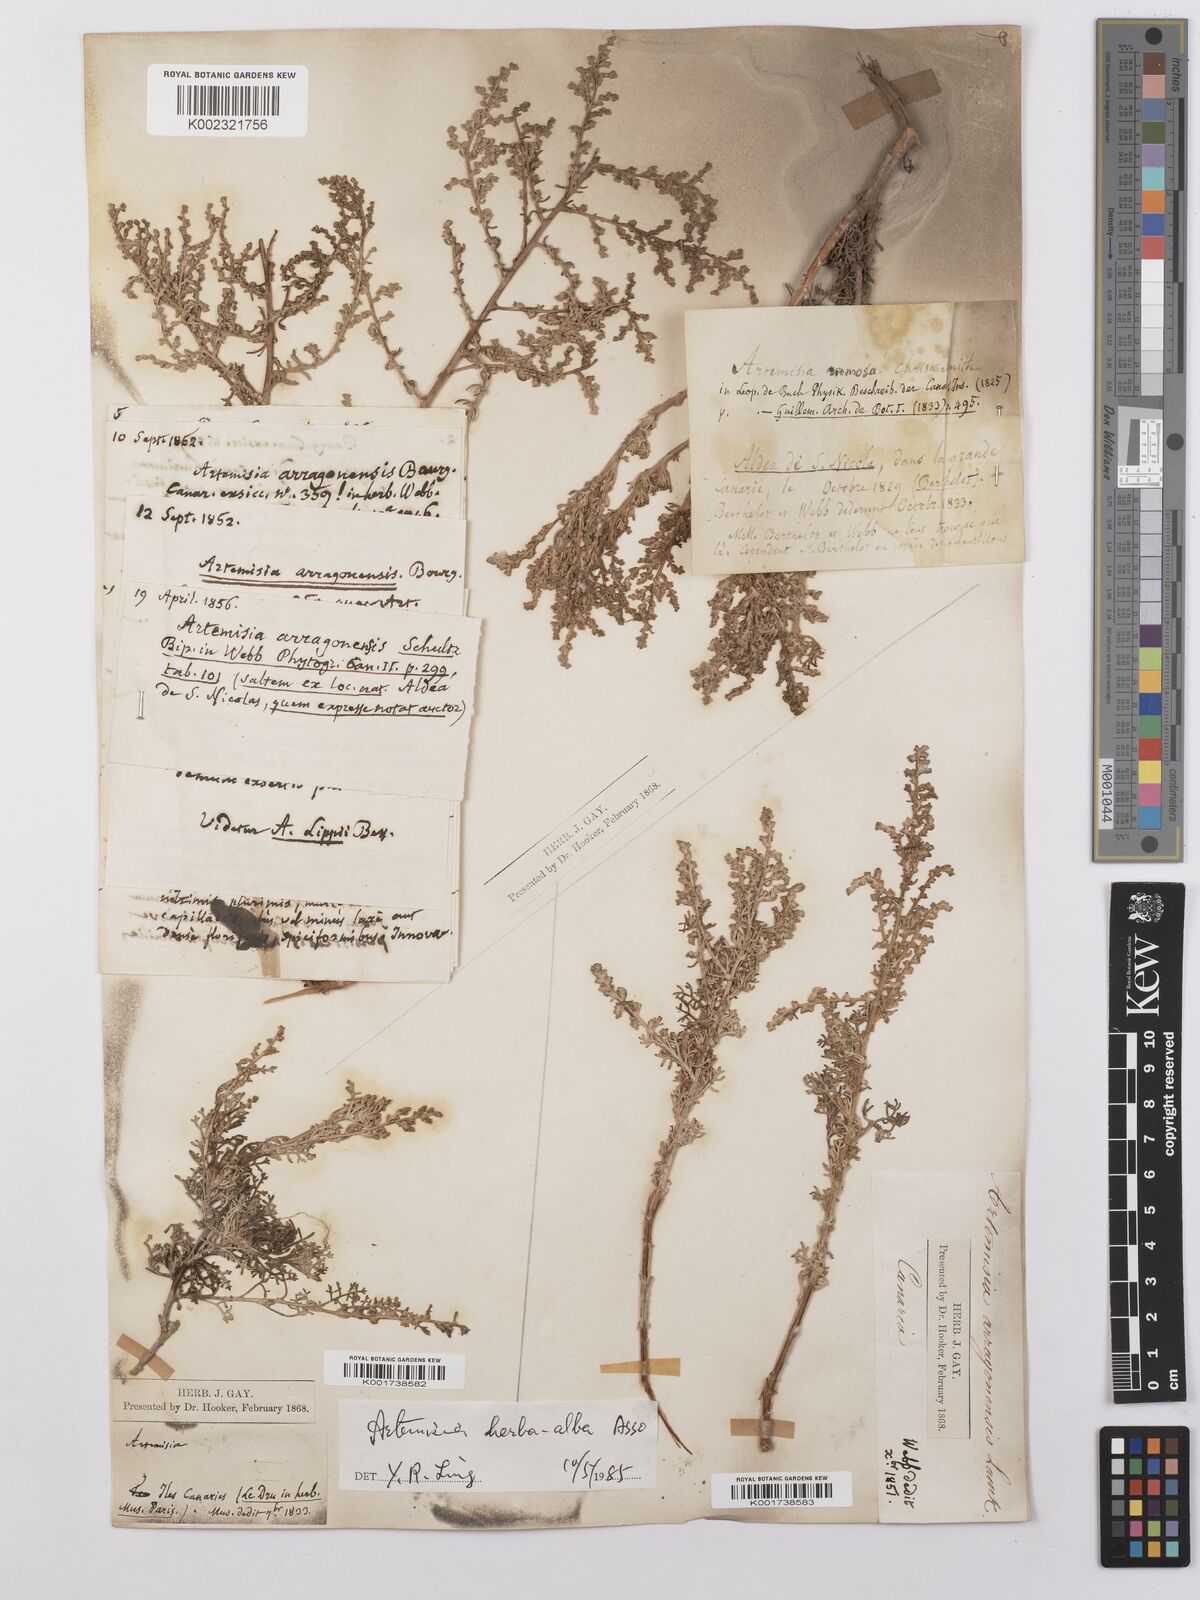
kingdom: Plantae
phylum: Tracheophyta
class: Magnoliopsida
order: Asterales
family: Asteraceae
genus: Artemisia
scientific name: Artemisia herba-alba
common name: White wormwood
